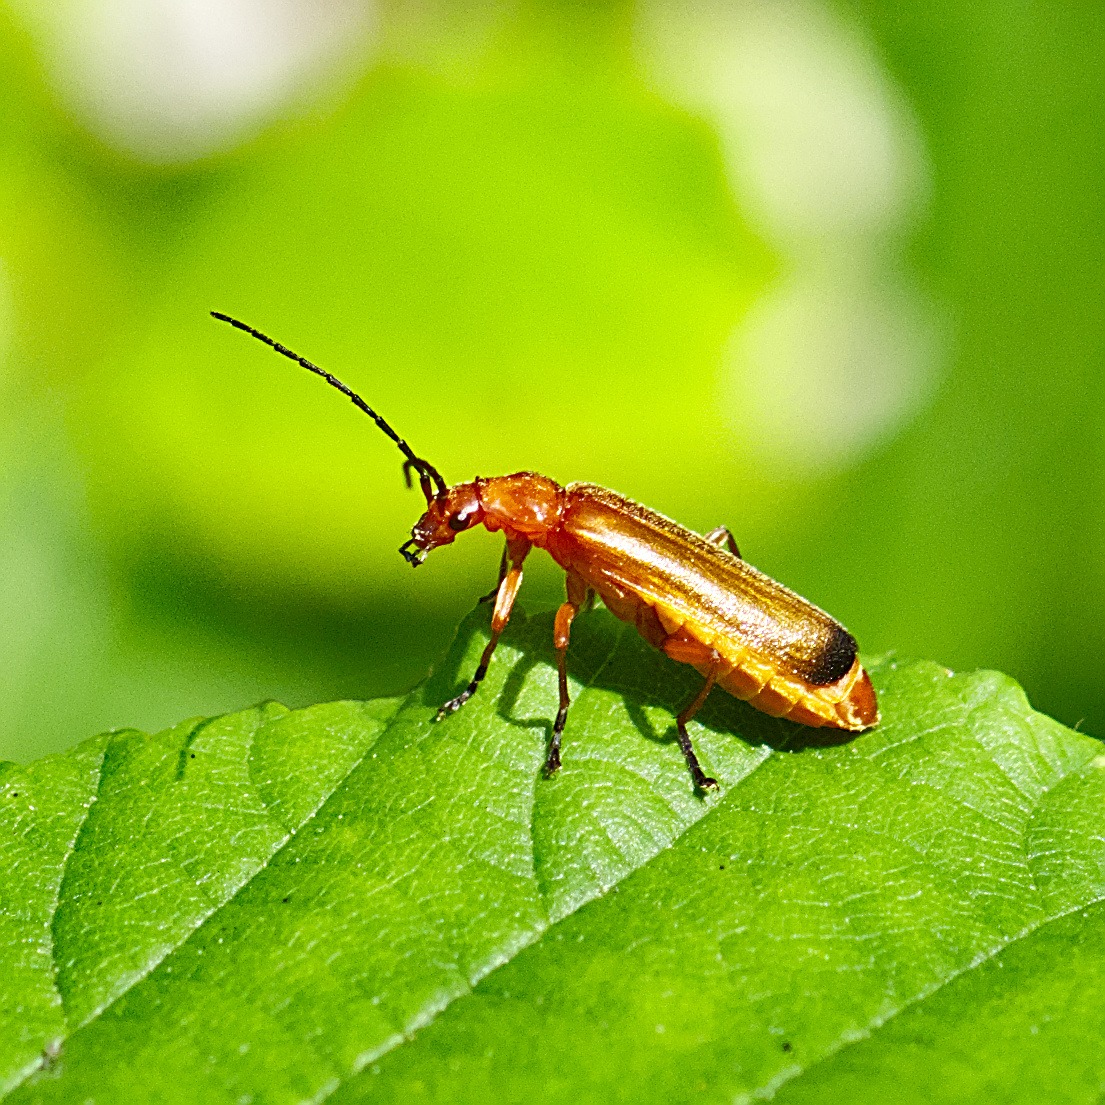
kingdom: Animalia
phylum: Arthropoda
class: Insecta
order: Coleoptera
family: Cantharidae
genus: Rhagonycha
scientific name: Rhagonycha fulva
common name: Præstebille
